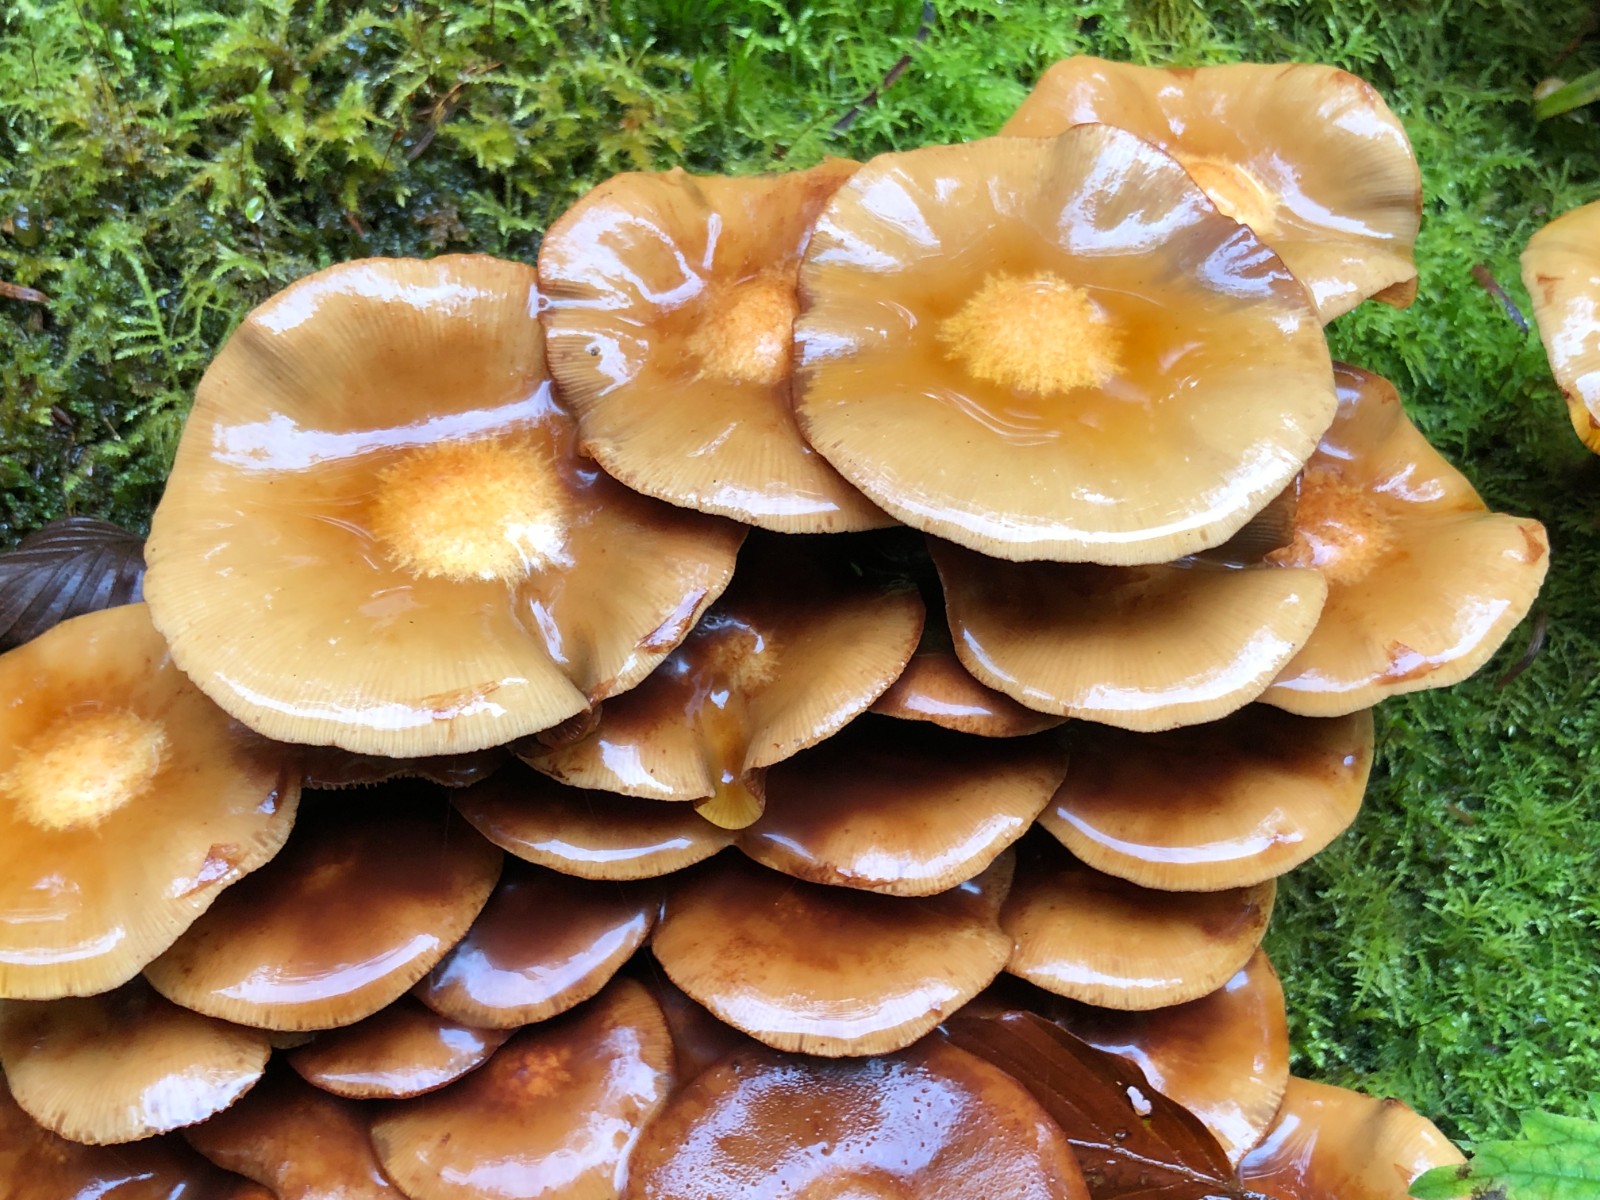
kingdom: Fungi
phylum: Basidiomycota
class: Agaricomycetes
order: Agaricales
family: Strophariaceae
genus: Kuehneromyces
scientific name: Kuehneromyces mutabilis
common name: foranderlig skælhat
